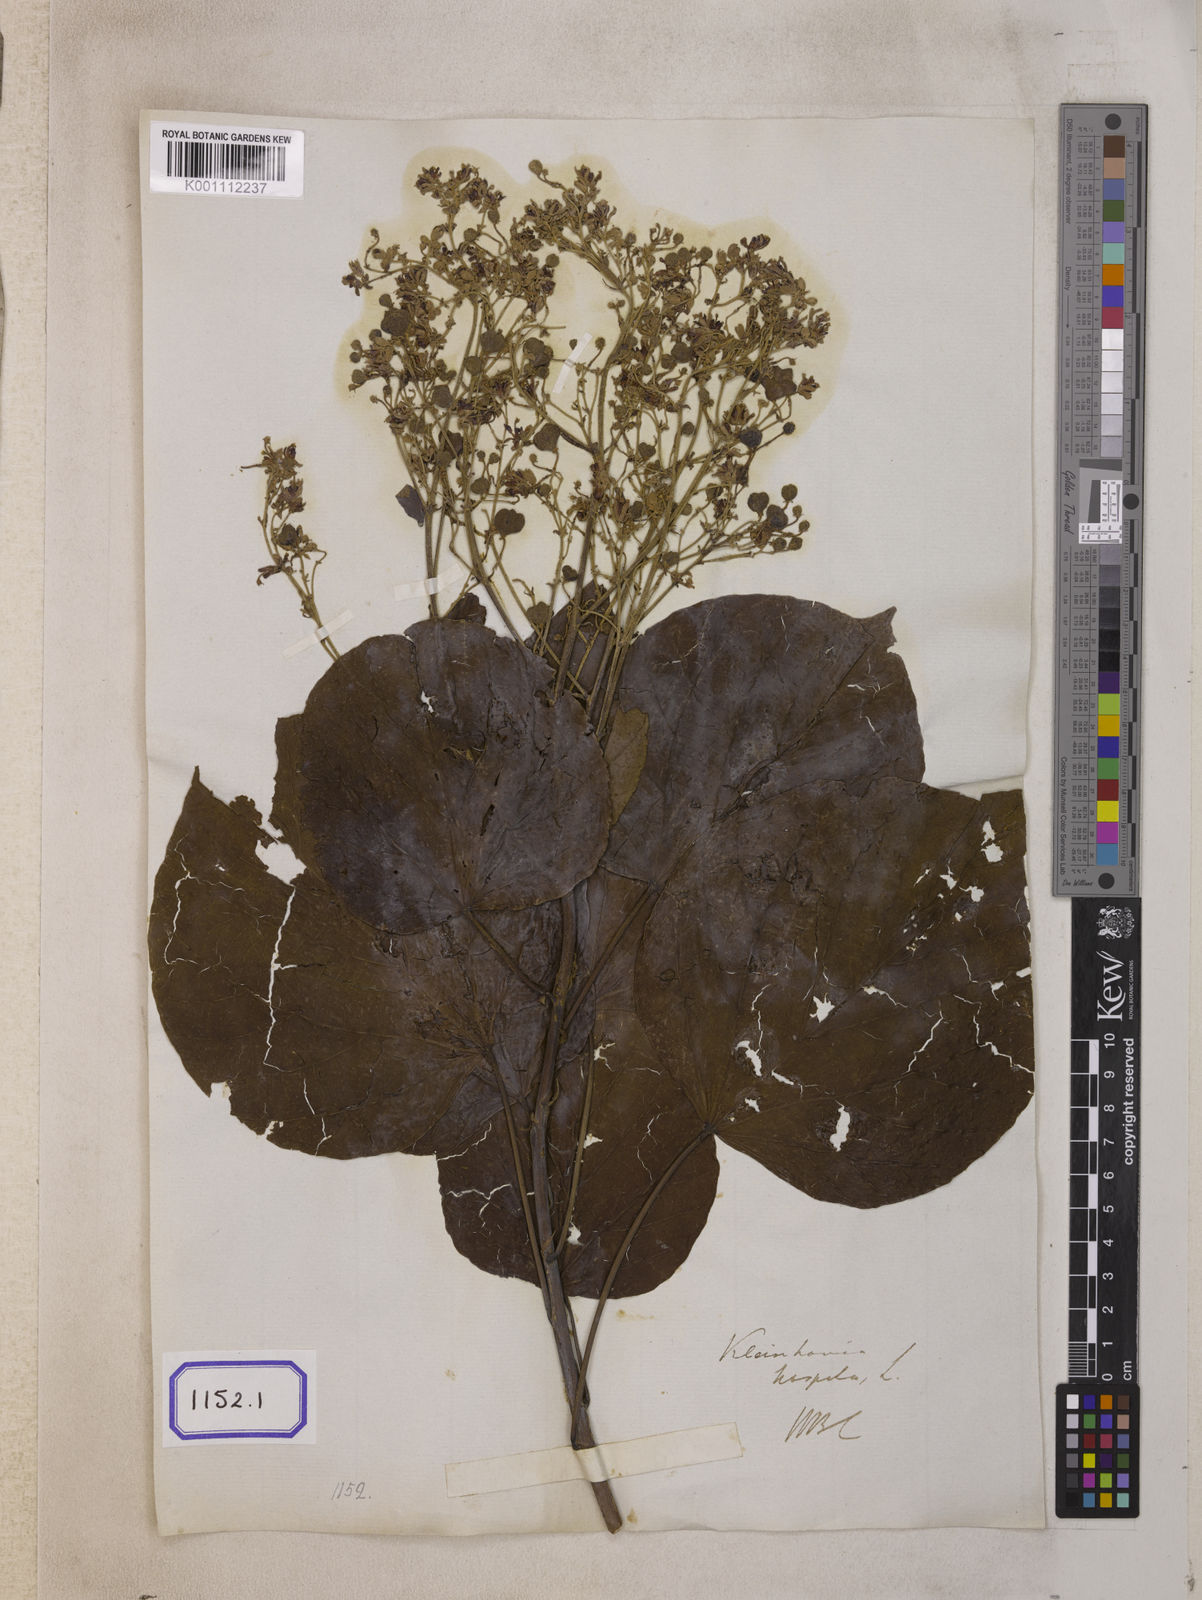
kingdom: Plantae
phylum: Tracheophyta
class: Magnoliopsida
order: Malvales
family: Malvaceae
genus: Kleinhovia
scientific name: Kleinhovia hospita
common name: Guest-tree
